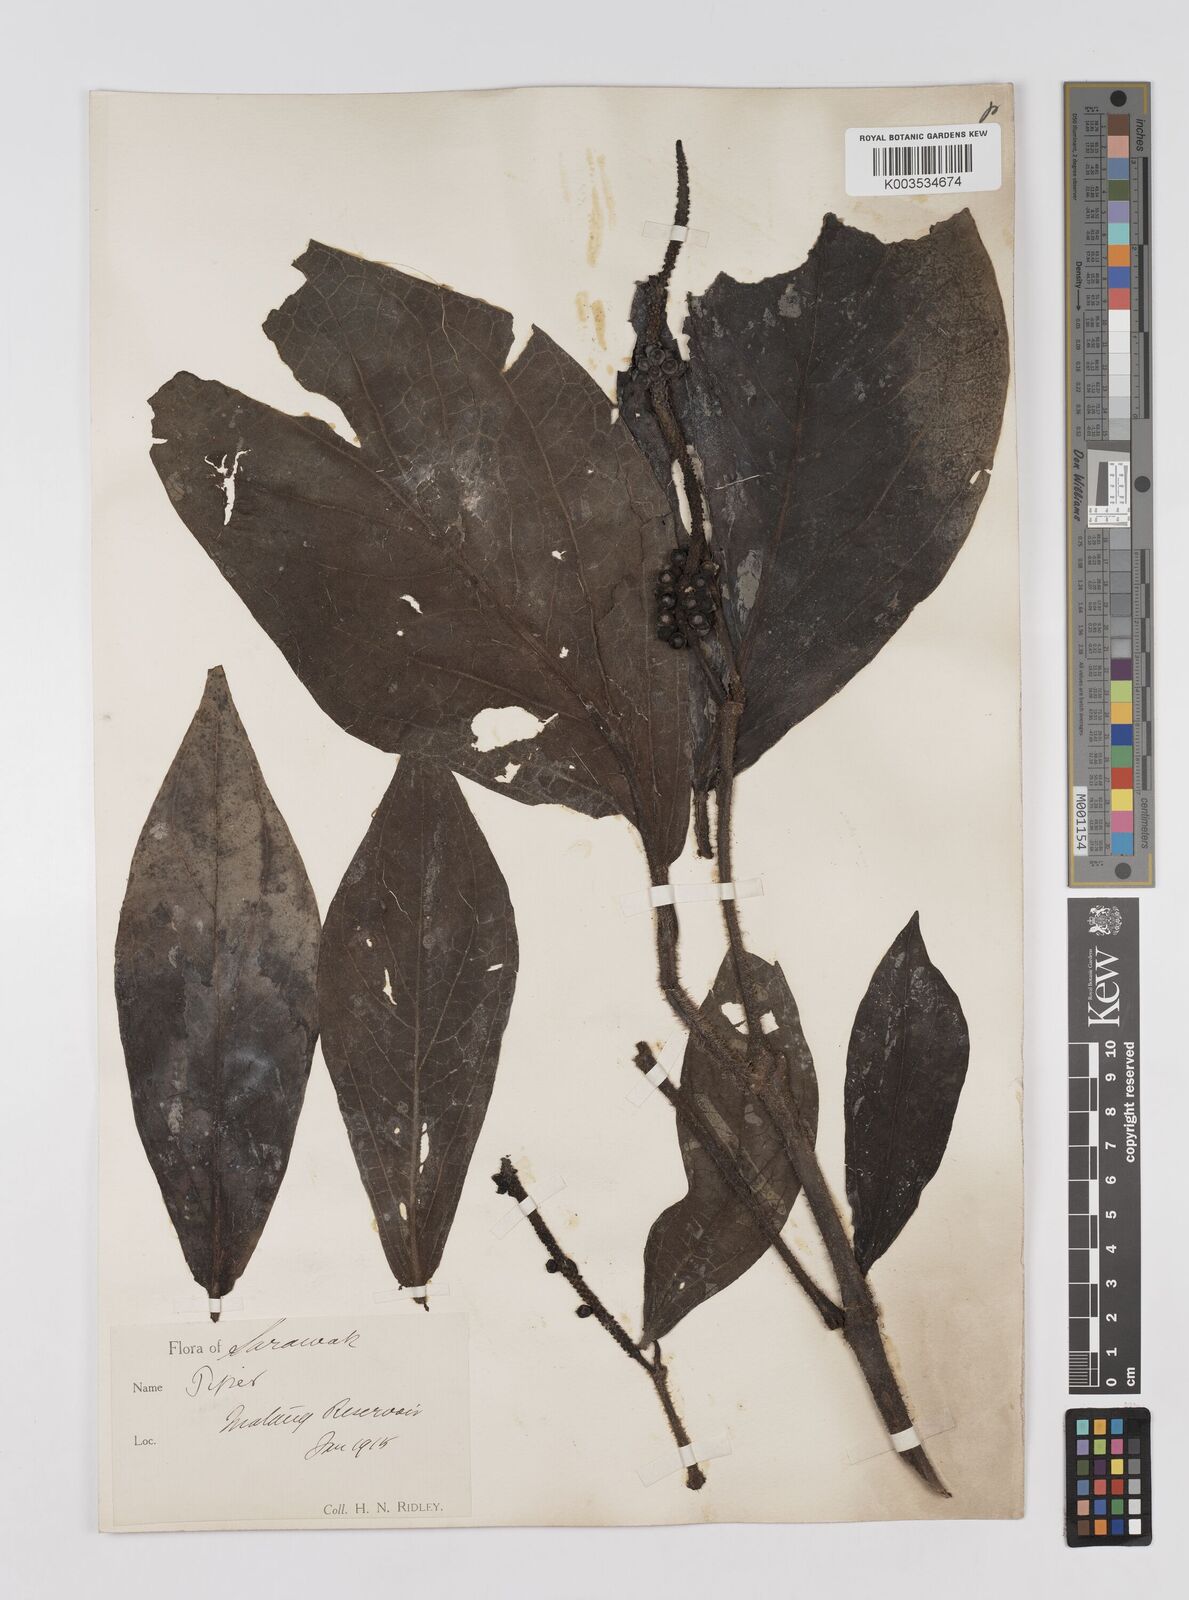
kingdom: Plantae
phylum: Tracheophyta
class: Magnoliopsida
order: Piperales
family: Piperaceae
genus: Piper
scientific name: Piper muricatum
